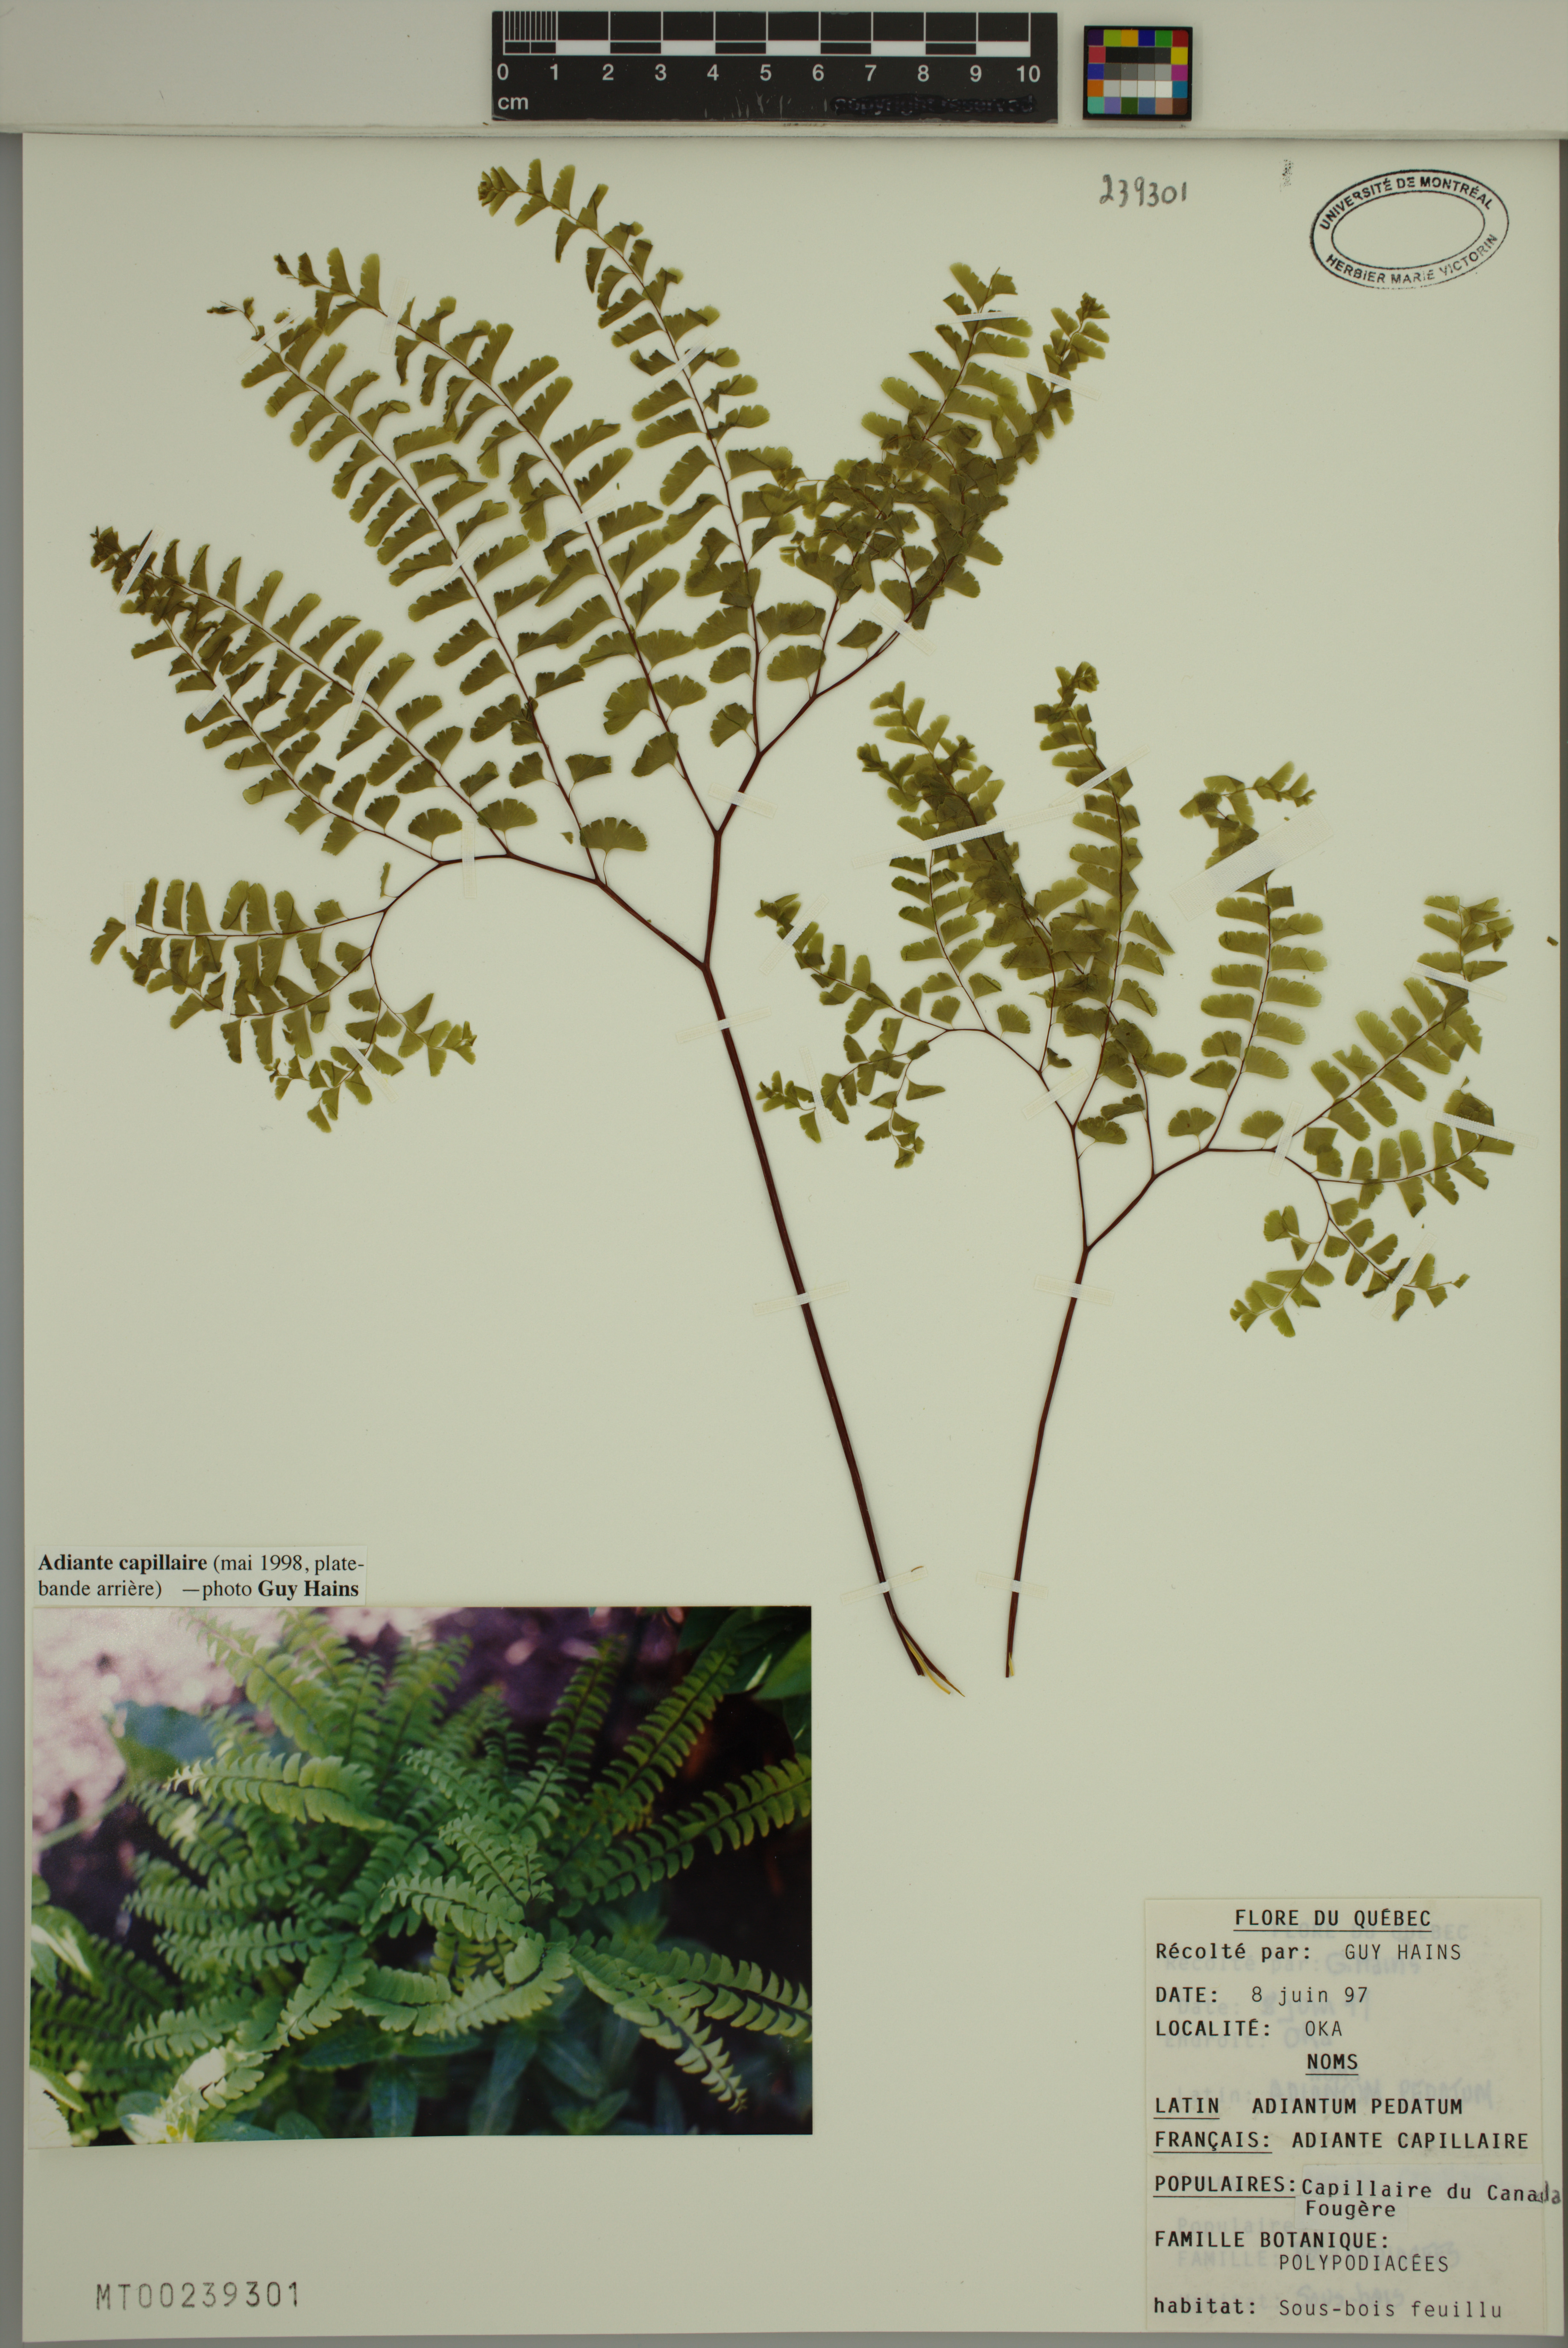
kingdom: Plantae
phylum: Tracheophyta
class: Polypodiopsida
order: Polypodiales
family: Pteridaceae
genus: Adiantum
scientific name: Adiantum pedatum
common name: Five-finger fern
